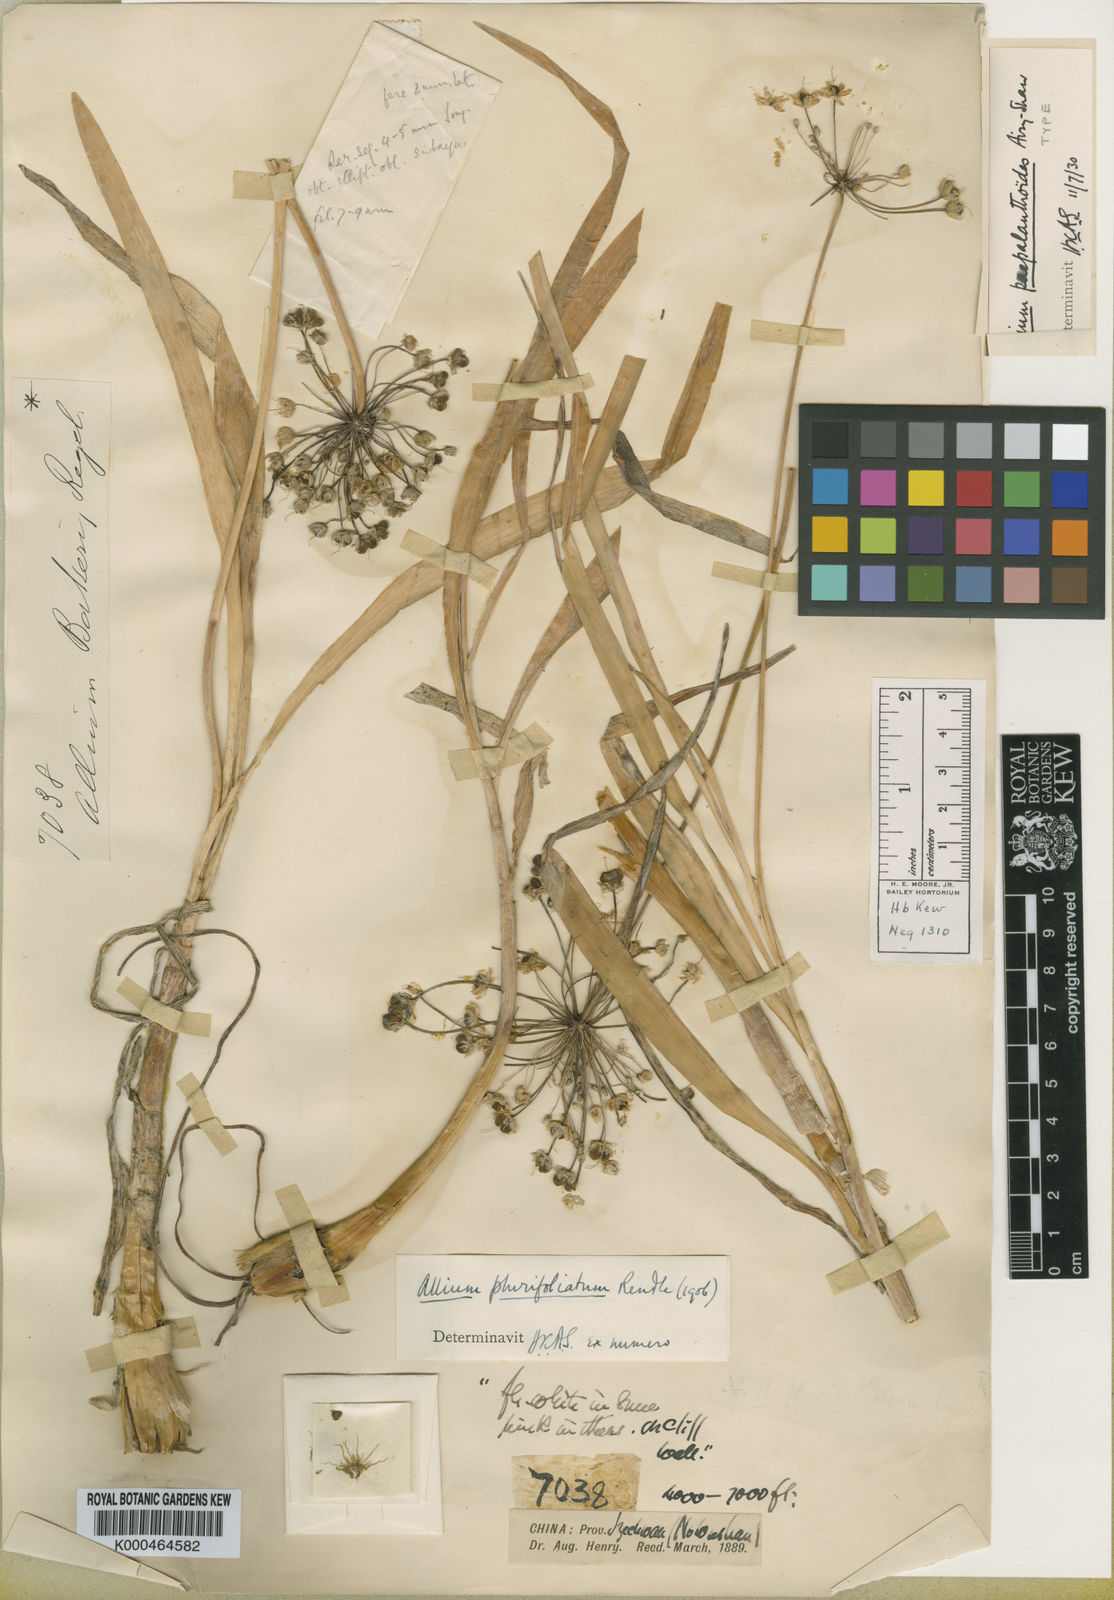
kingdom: Plantae
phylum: Tracheophyta
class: Liliopsida
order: Asparagales
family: Amaryllidaceae
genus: Allium
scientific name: Allium plurifoliatum
